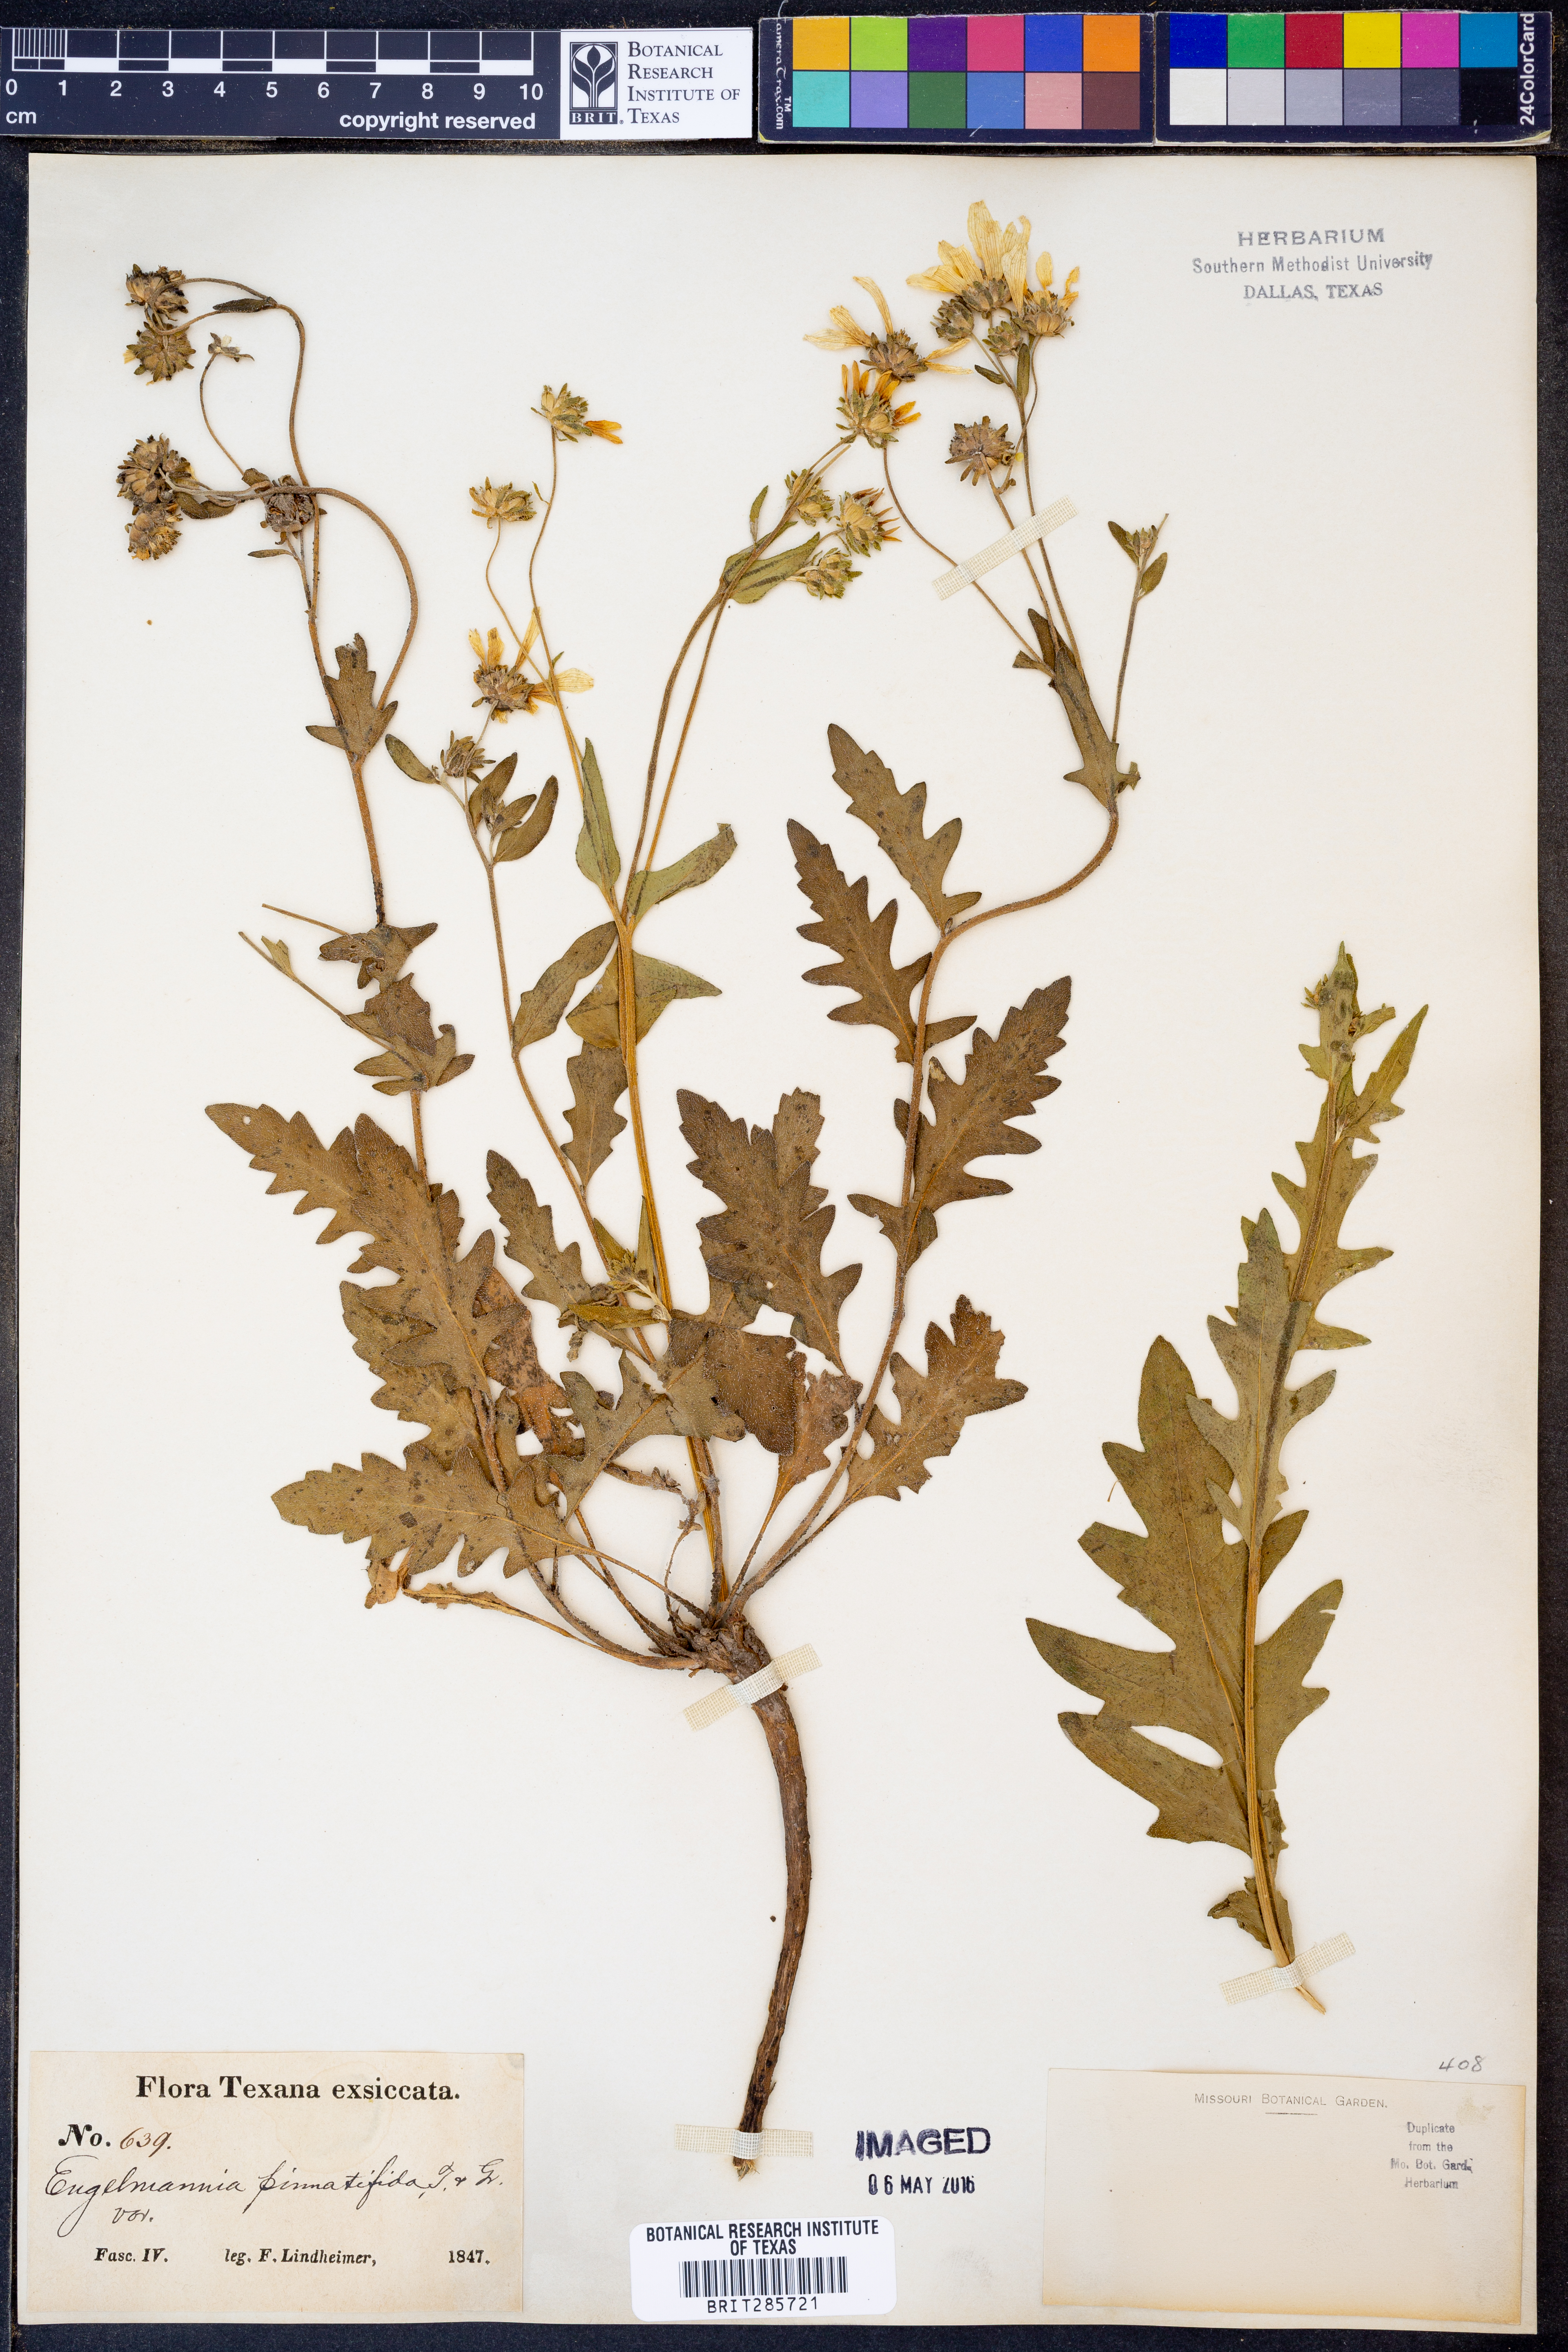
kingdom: Plantae
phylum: Tracheophyta
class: Magnoliopsida
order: Asterales
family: Asteraceae
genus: Engelmannia
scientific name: Engelmannia peristenia
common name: Engelmann's daisy
